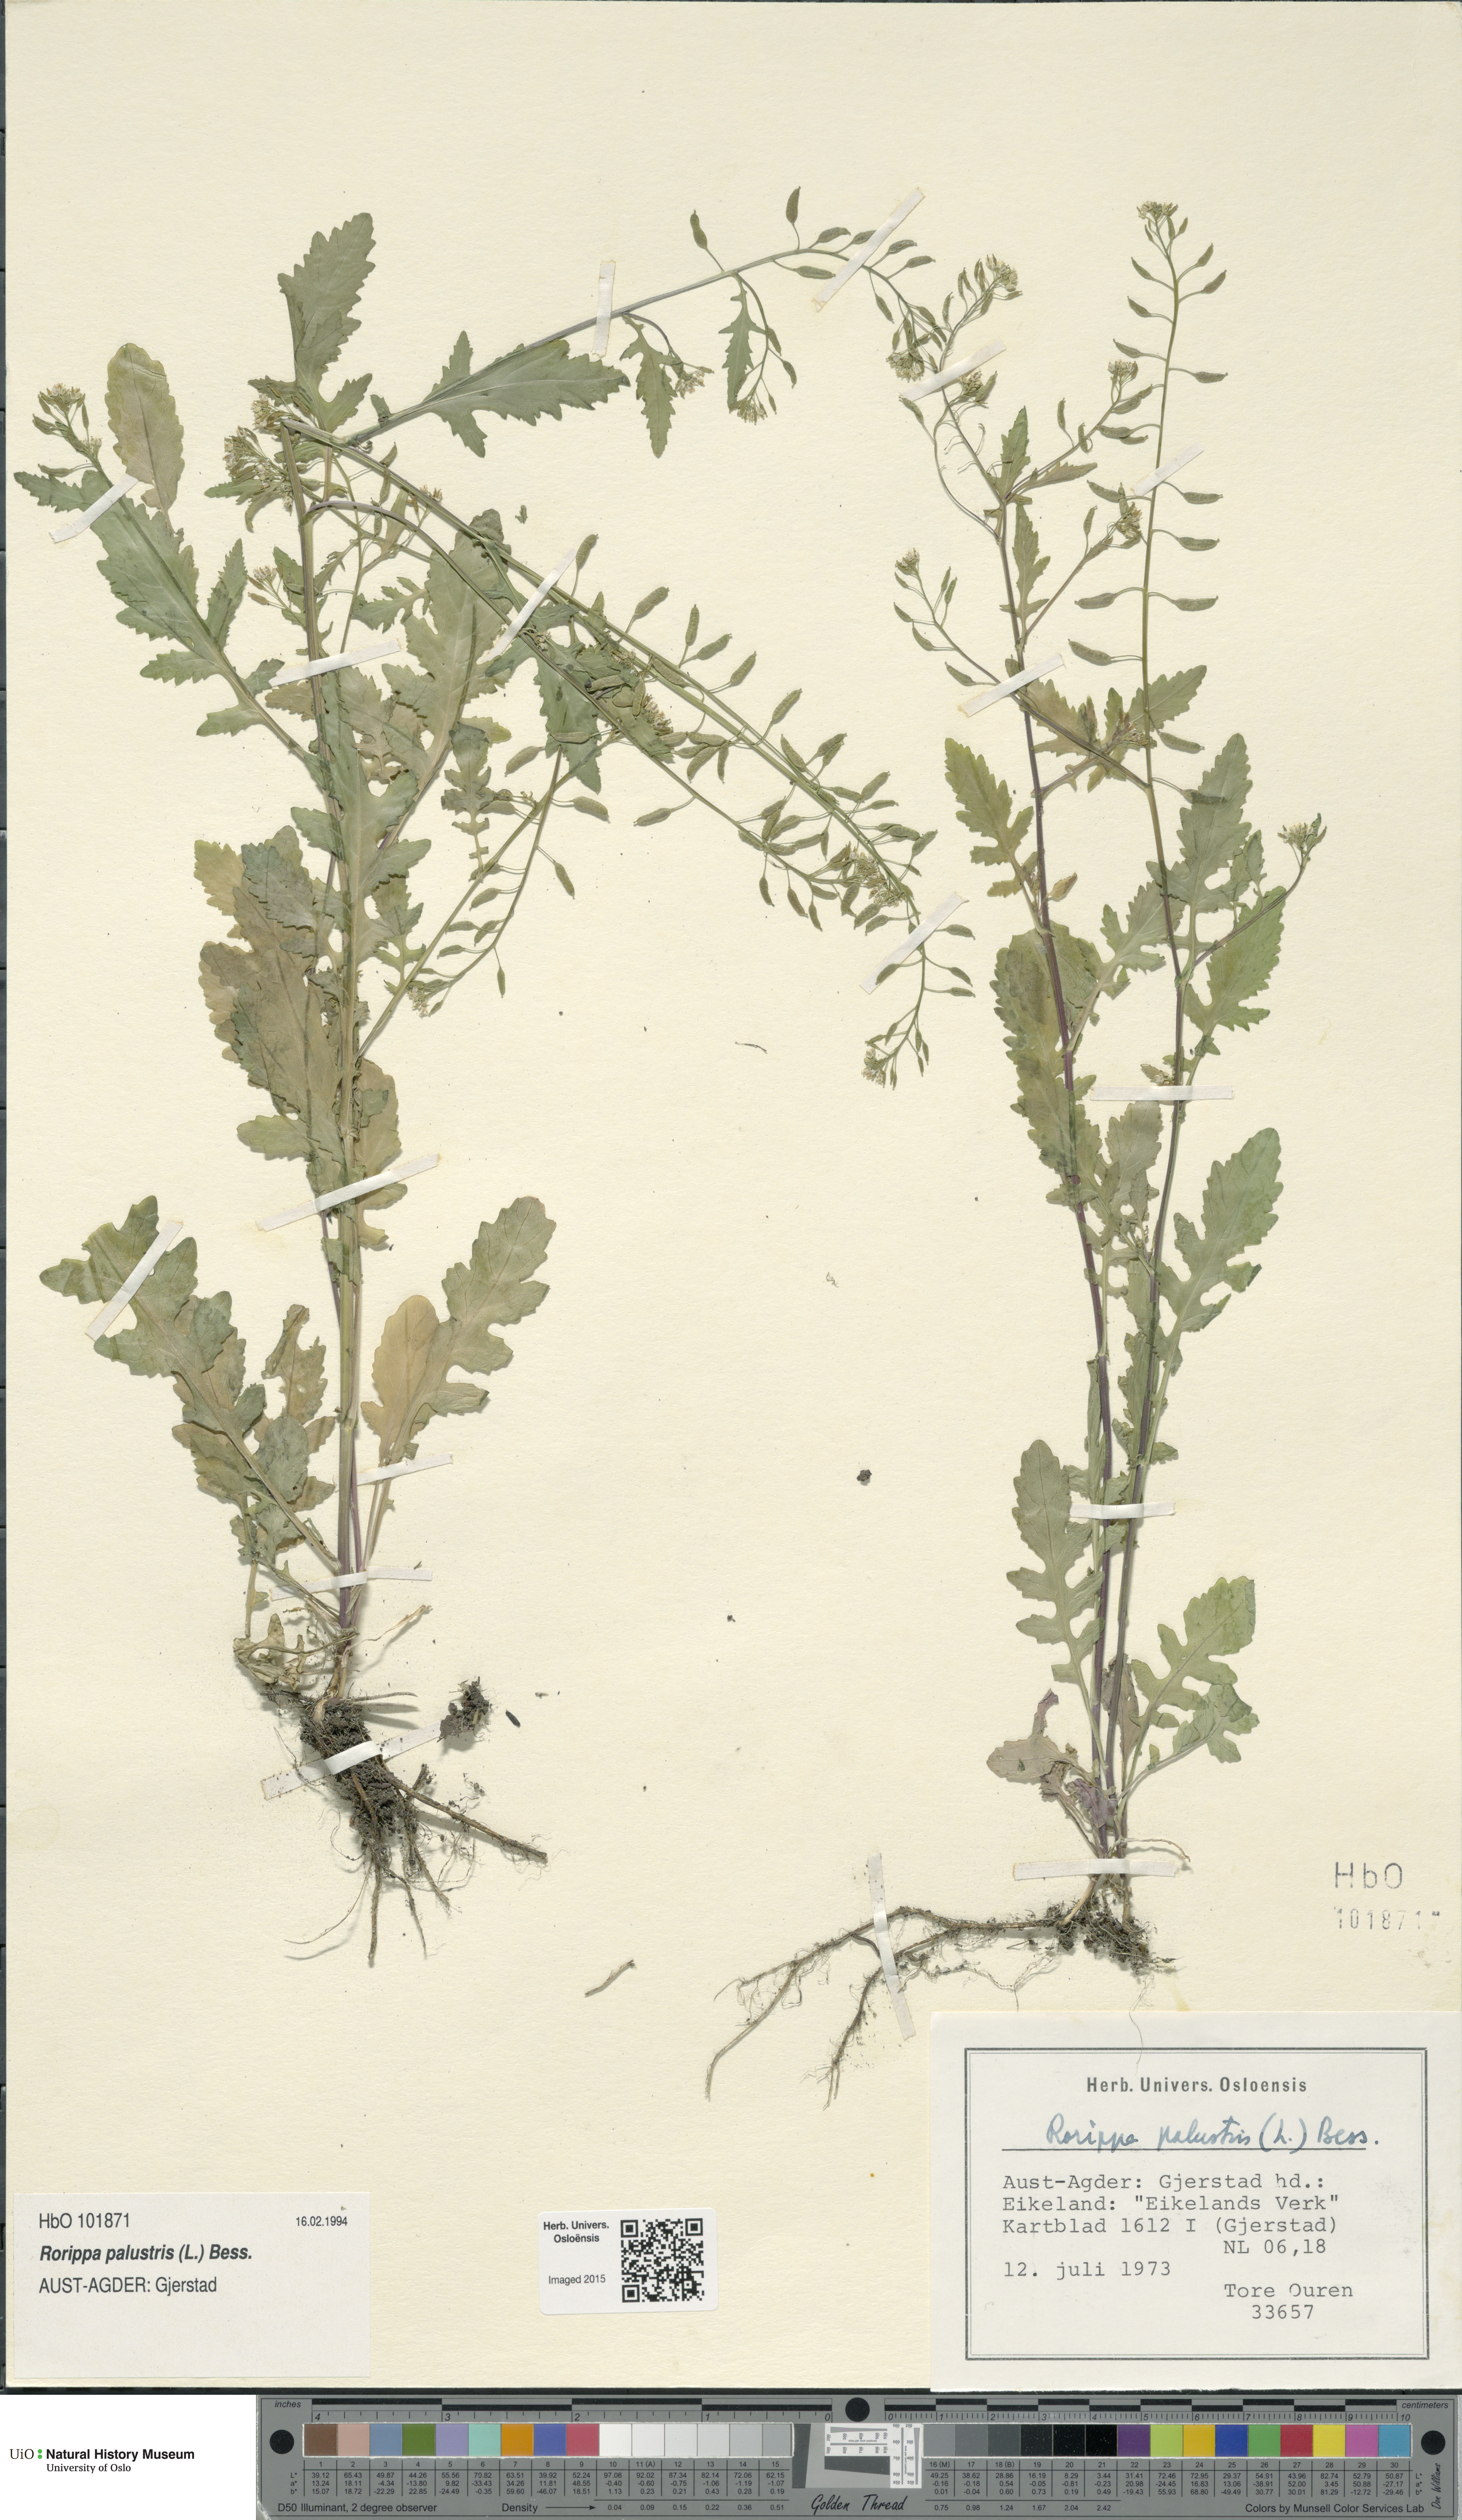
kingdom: Plantae
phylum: Tracheophyta
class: Magnoliopsida
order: Brassicales
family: Brassicaceae
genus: Rorippa
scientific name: Rorippa palustris
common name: Marsh yellow-cress
